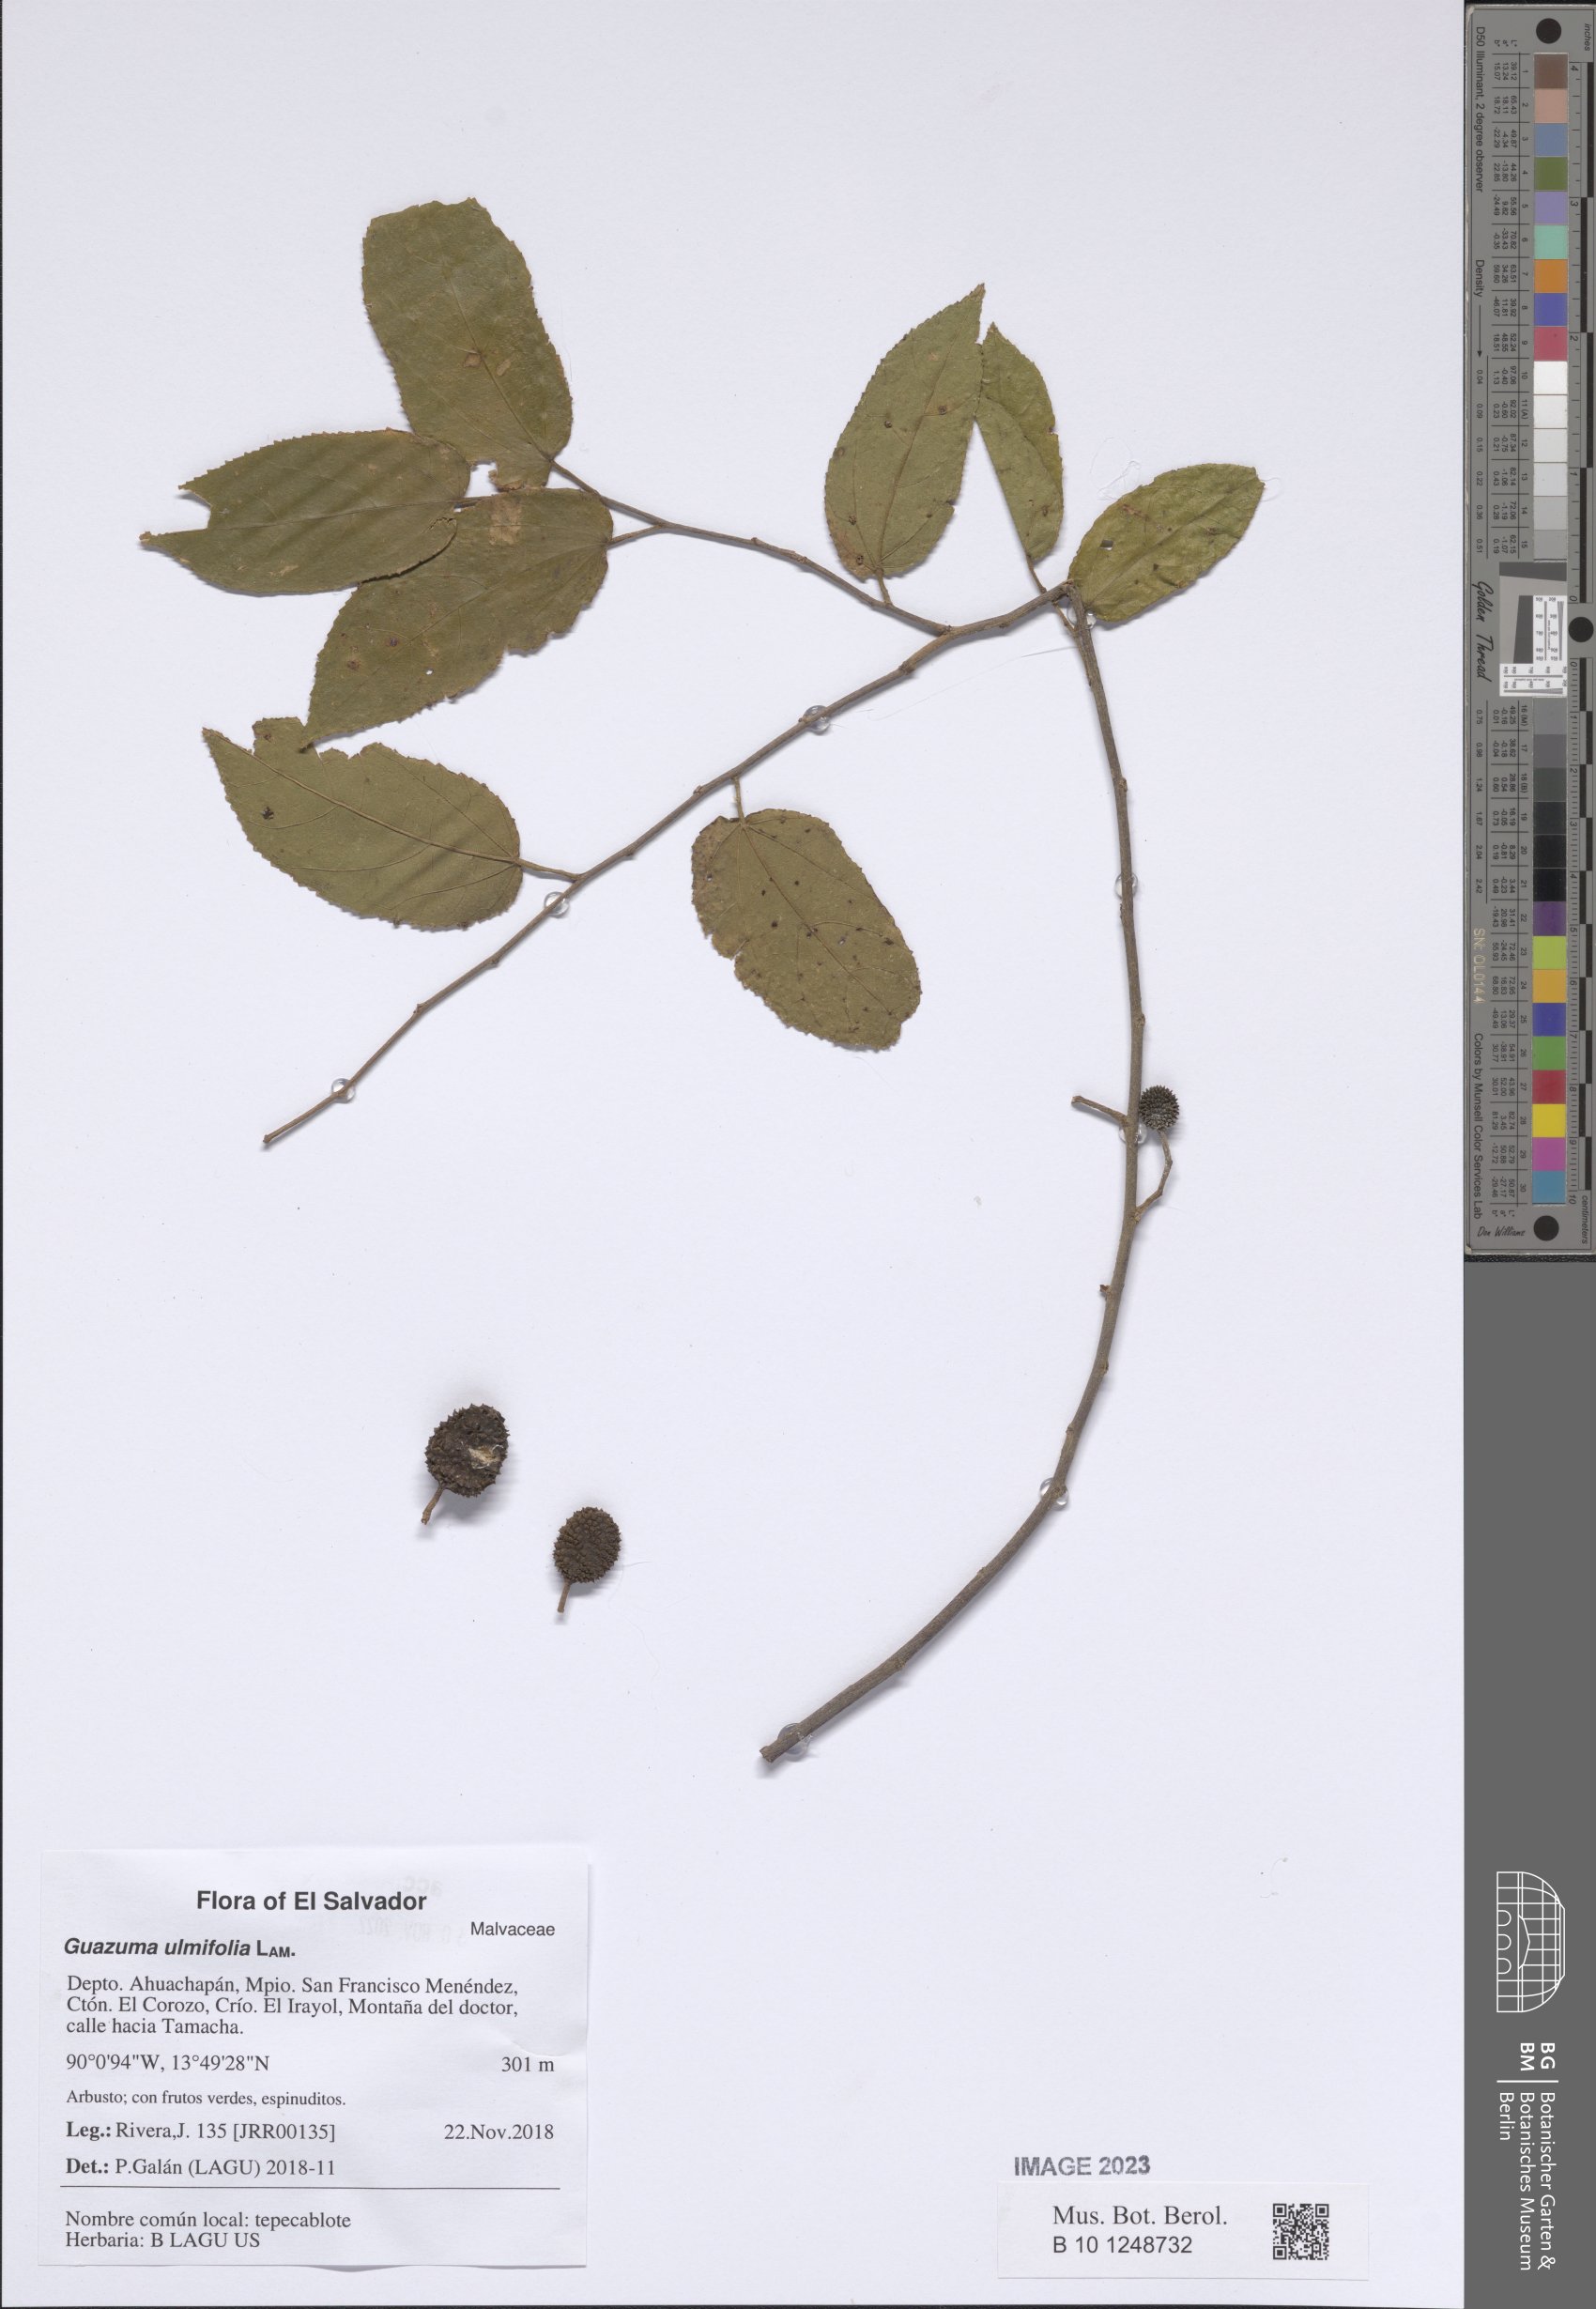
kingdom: Plantae
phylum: Tracheophyta
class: Magnoliopsida
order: Malvales
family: Malvaceae
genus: Guazuma
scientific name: Guazuma ulmifolia
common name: Bastard-cedar
